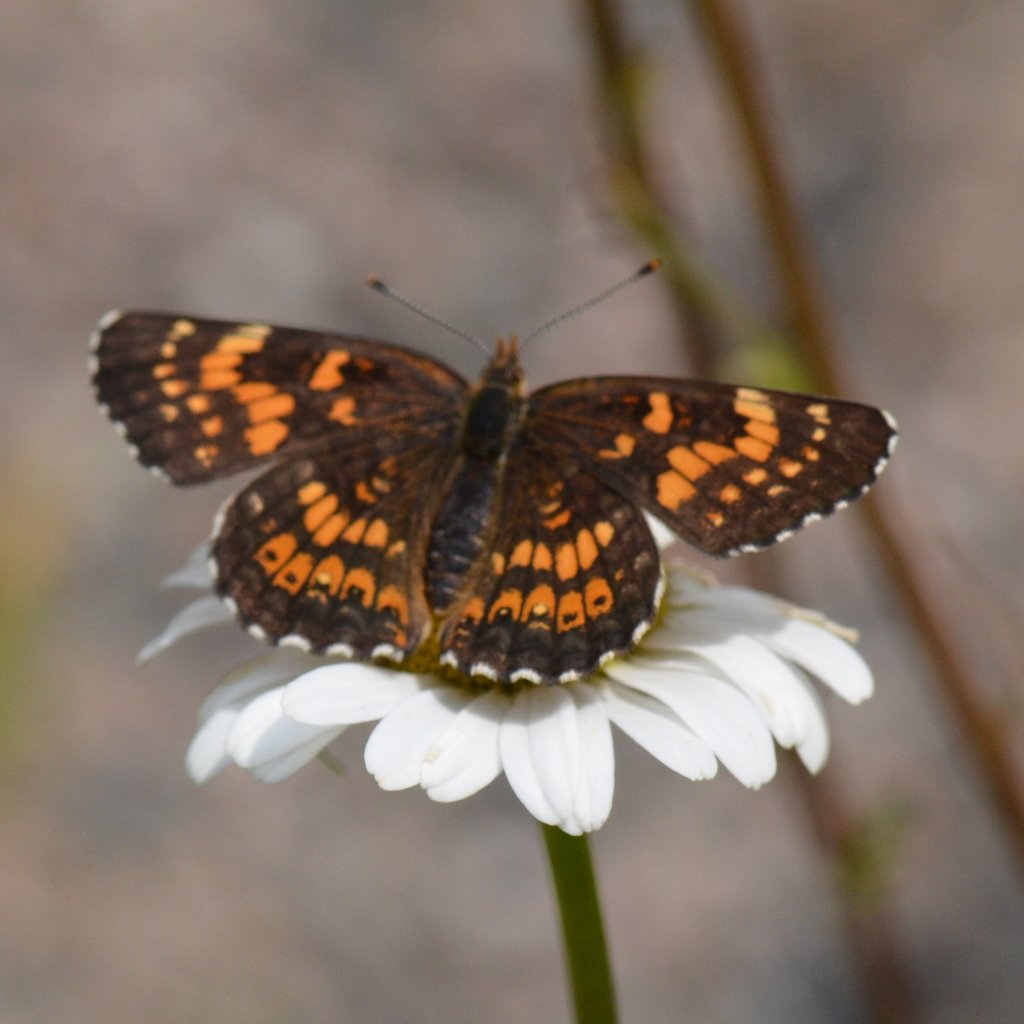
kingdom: Animalia
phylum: Arthropoda
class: Insecta
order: Lepidoptera
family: Nymphalidae
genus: Chlosyne
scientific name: Chlosyne harrisii
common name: Harris's Checkerspot
